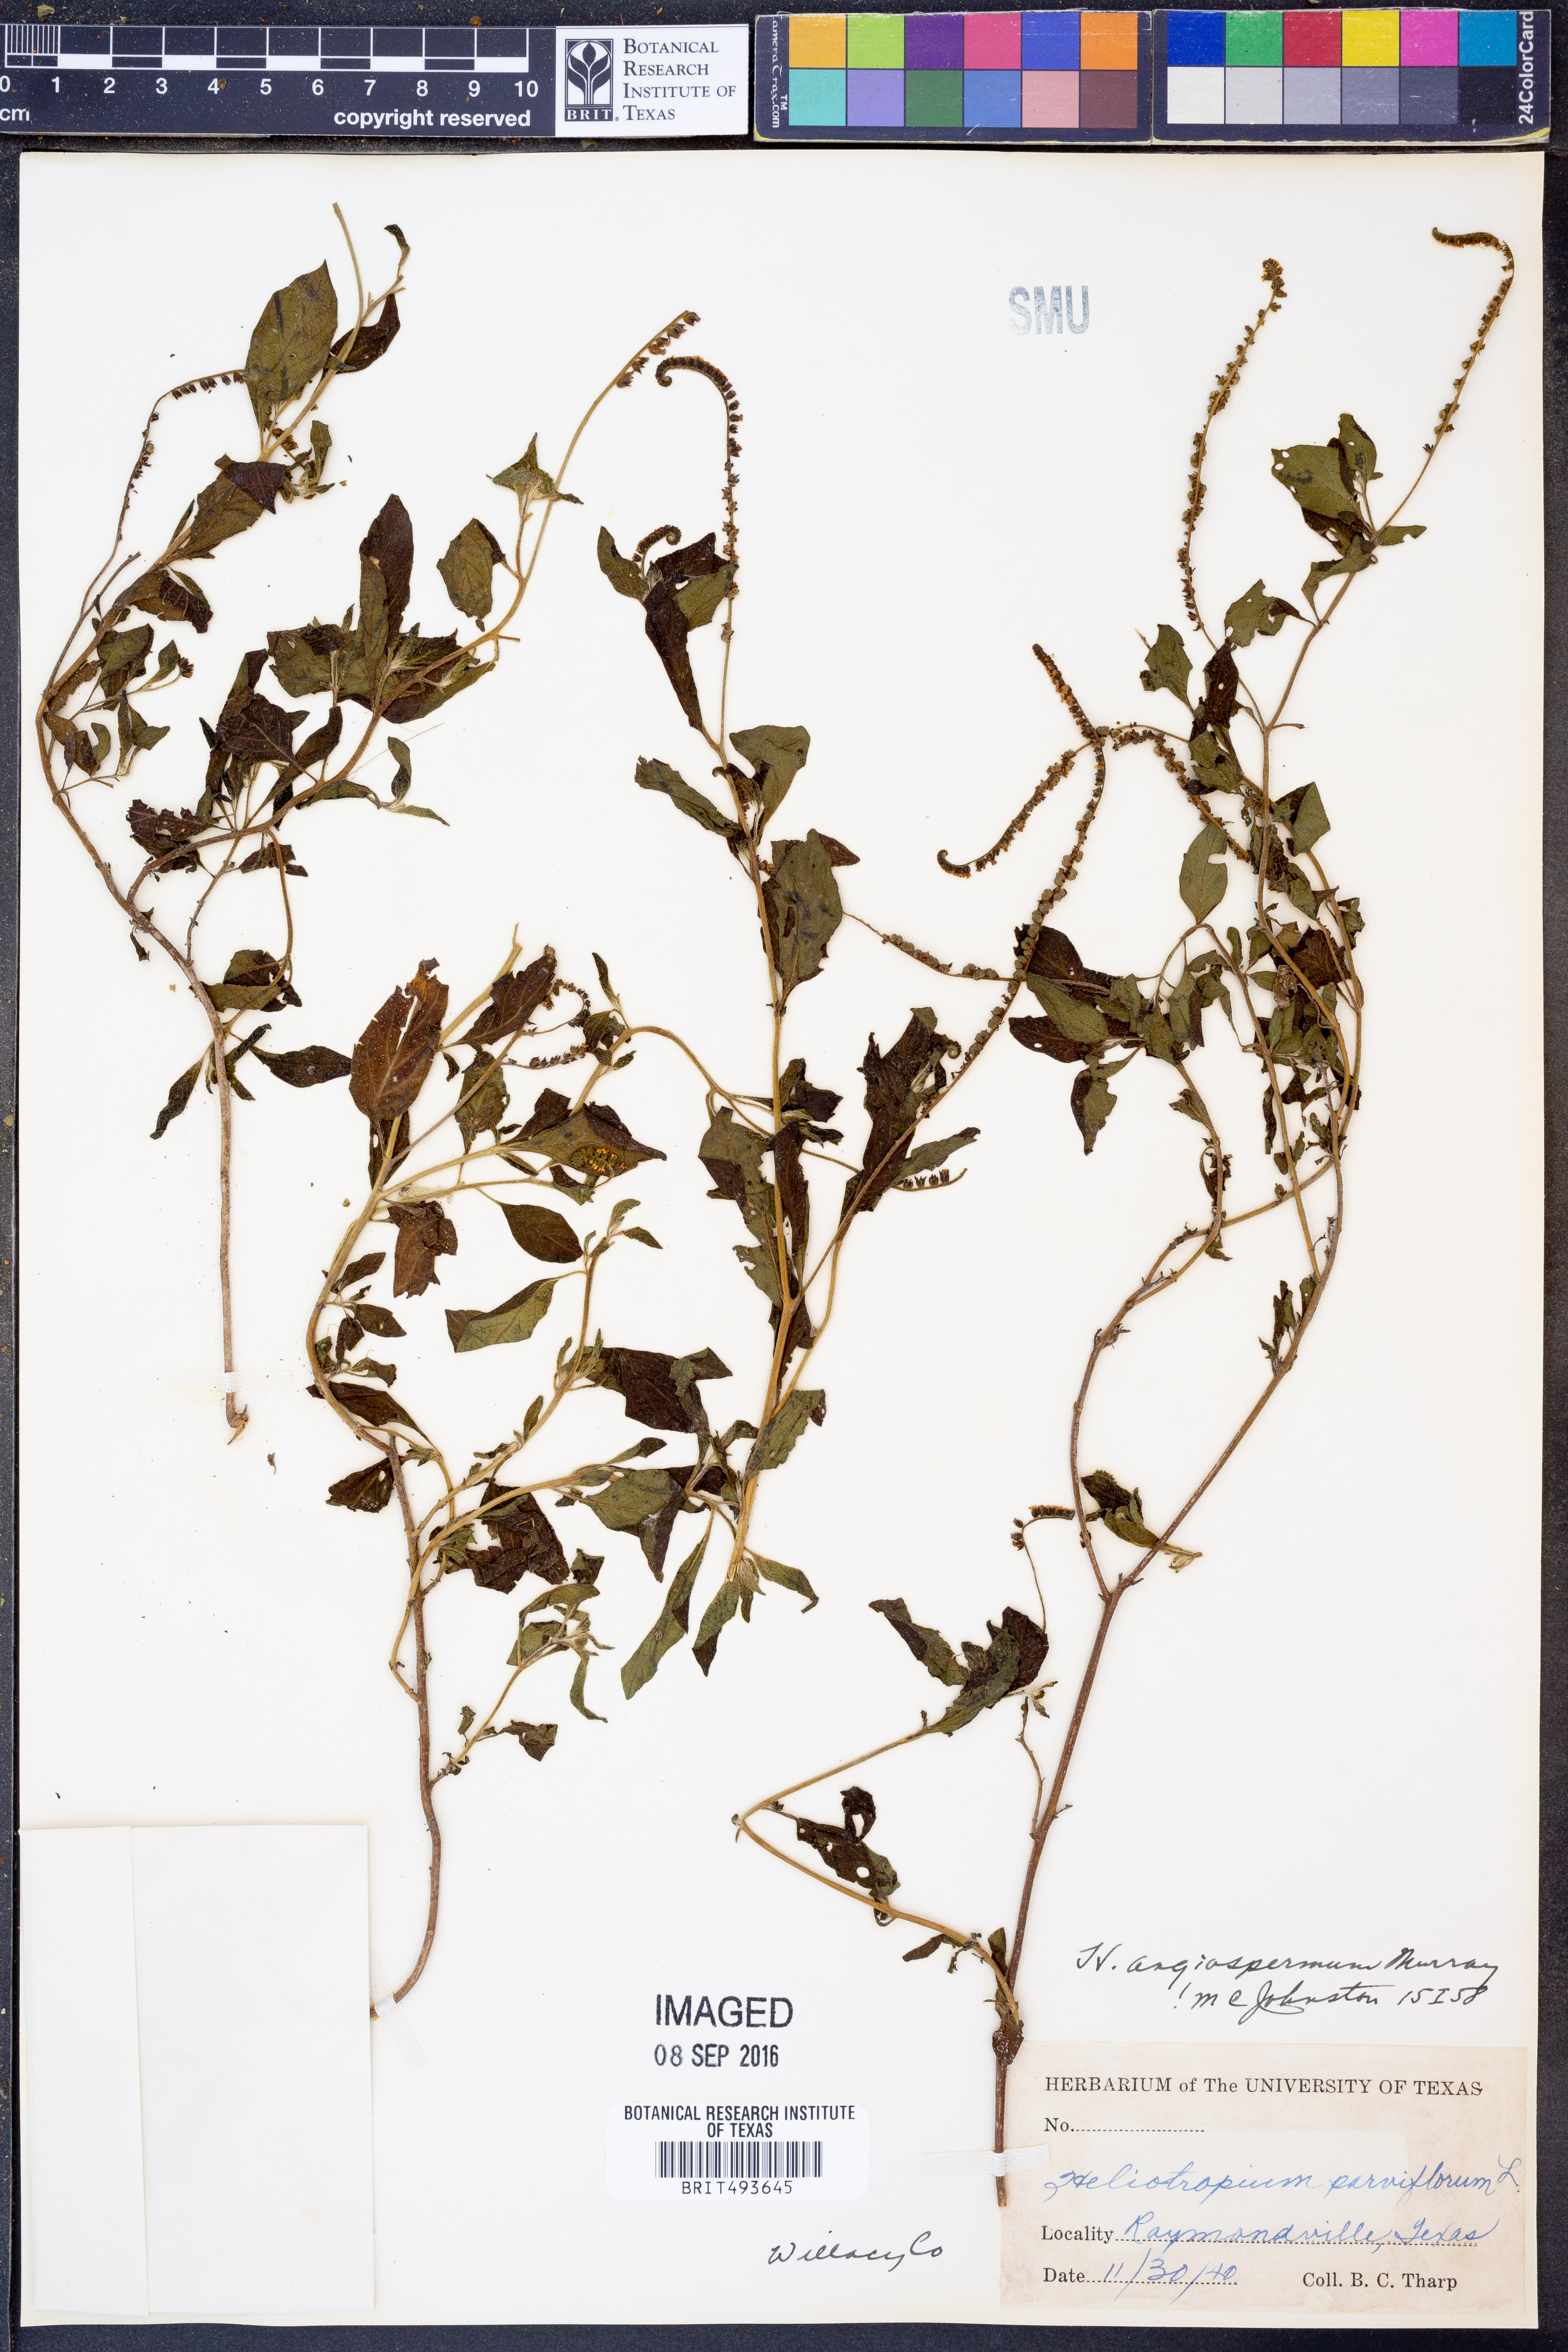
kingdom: Plantae
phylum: Tracheophyta
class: Magnoliopsida
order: Boraginales
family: Heliotropiaceae
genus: Heliotropium
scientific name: Heliotropium angiospermum
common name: Eye bright
